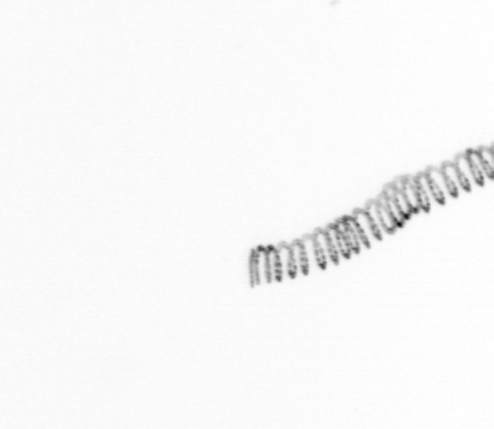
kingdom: Chromista
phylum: Ochrophyta
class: Bacillariophyceae
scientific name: Bacillariophyceae
